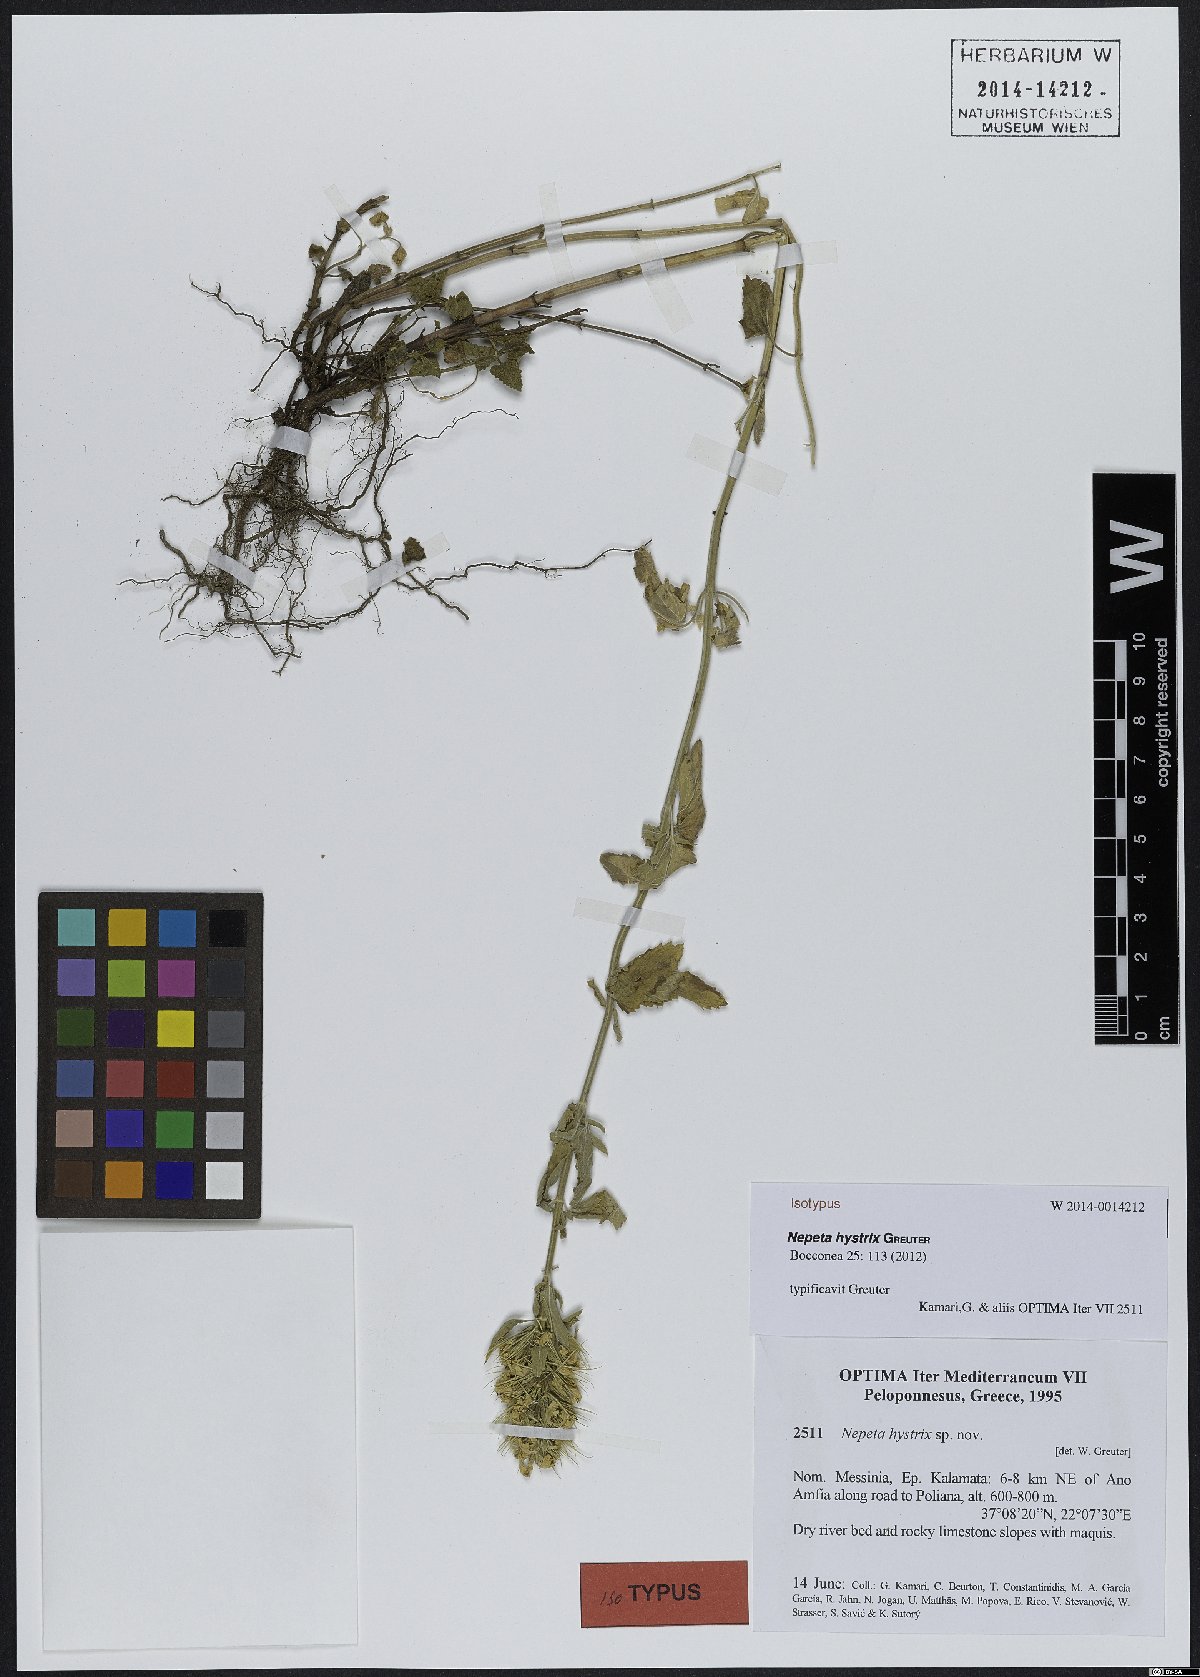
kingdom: Plantae
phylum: Tracheophyta
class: Magnoliopsida
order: Lamiales
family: Lamiaceae
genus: Nepeta
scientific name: Nepeta hystrix
